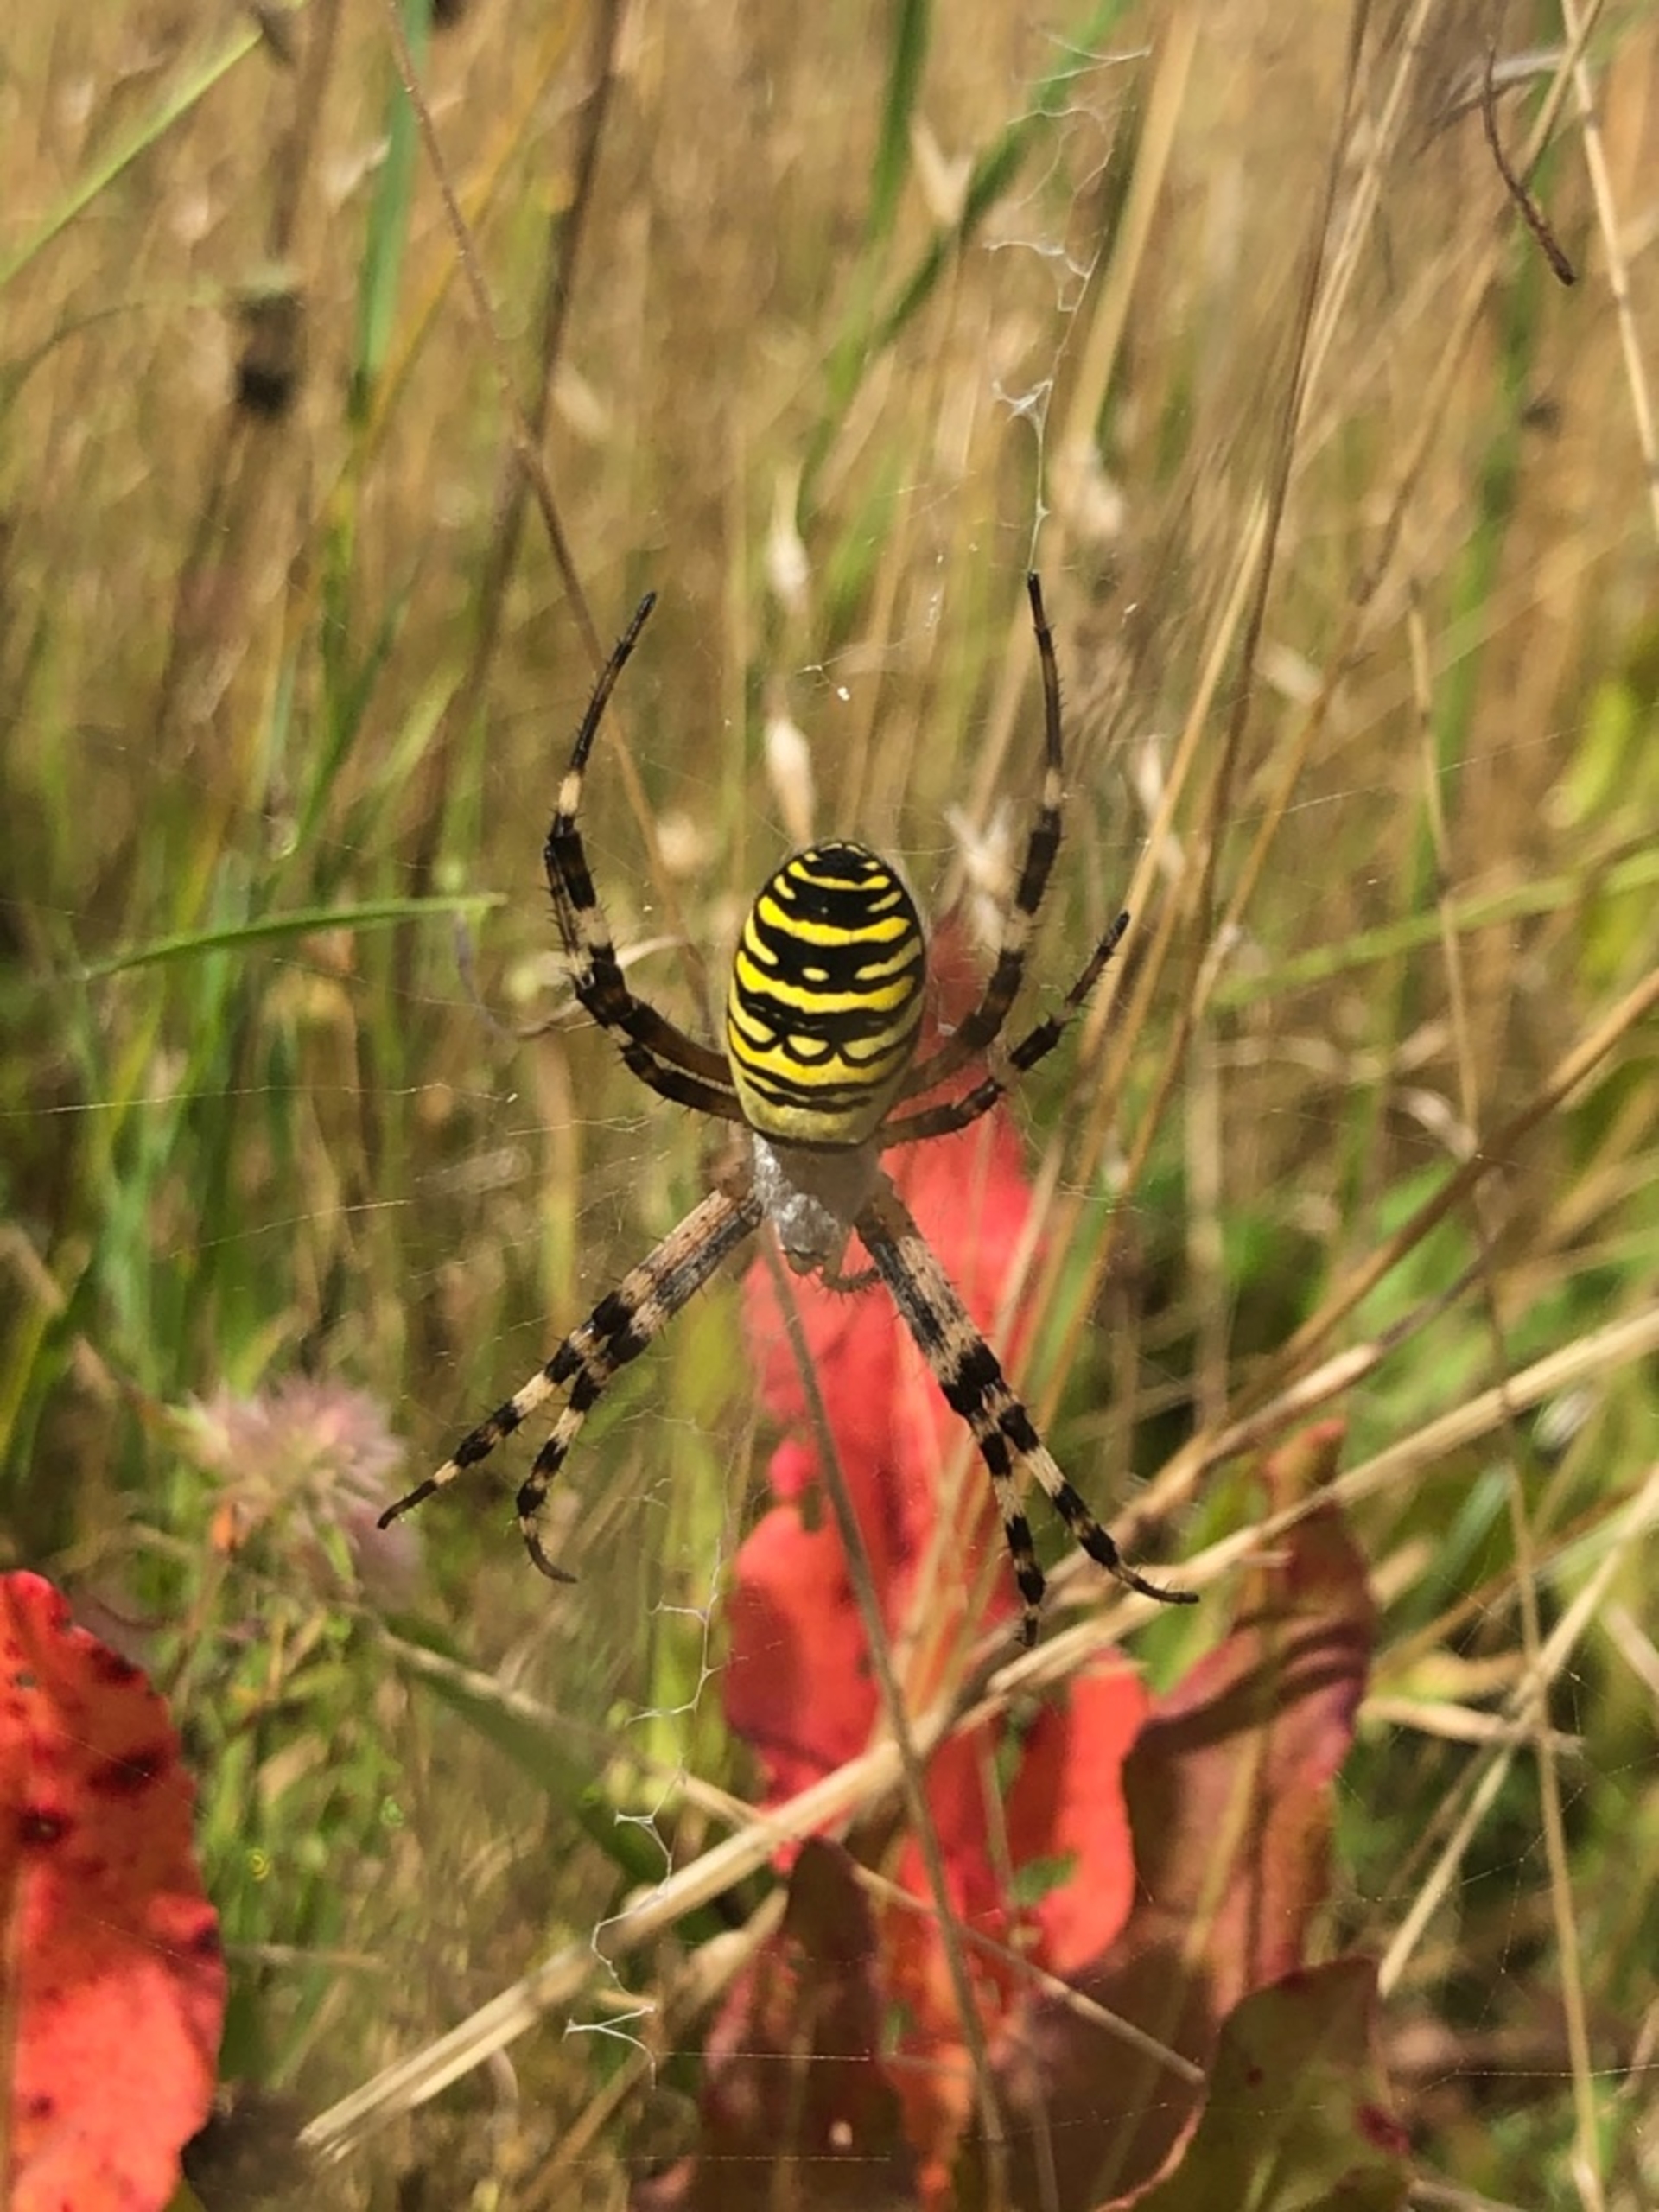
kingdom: Animalia
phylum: Arthropoda
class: Arachnida
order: Araneae
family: Araneidae
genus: Argiope
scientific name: Argiope bruennichi
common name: Hvepseedderkop
